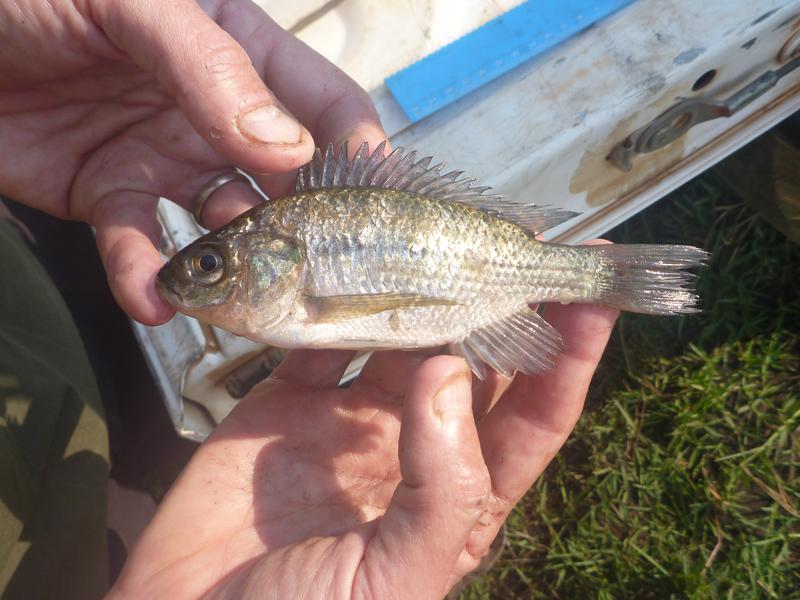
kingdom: Animalia
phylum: Chordata
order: Perciformes
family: Cichlidae
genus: Oreochromis
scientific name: Oreochromis esculentus
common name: Carp
